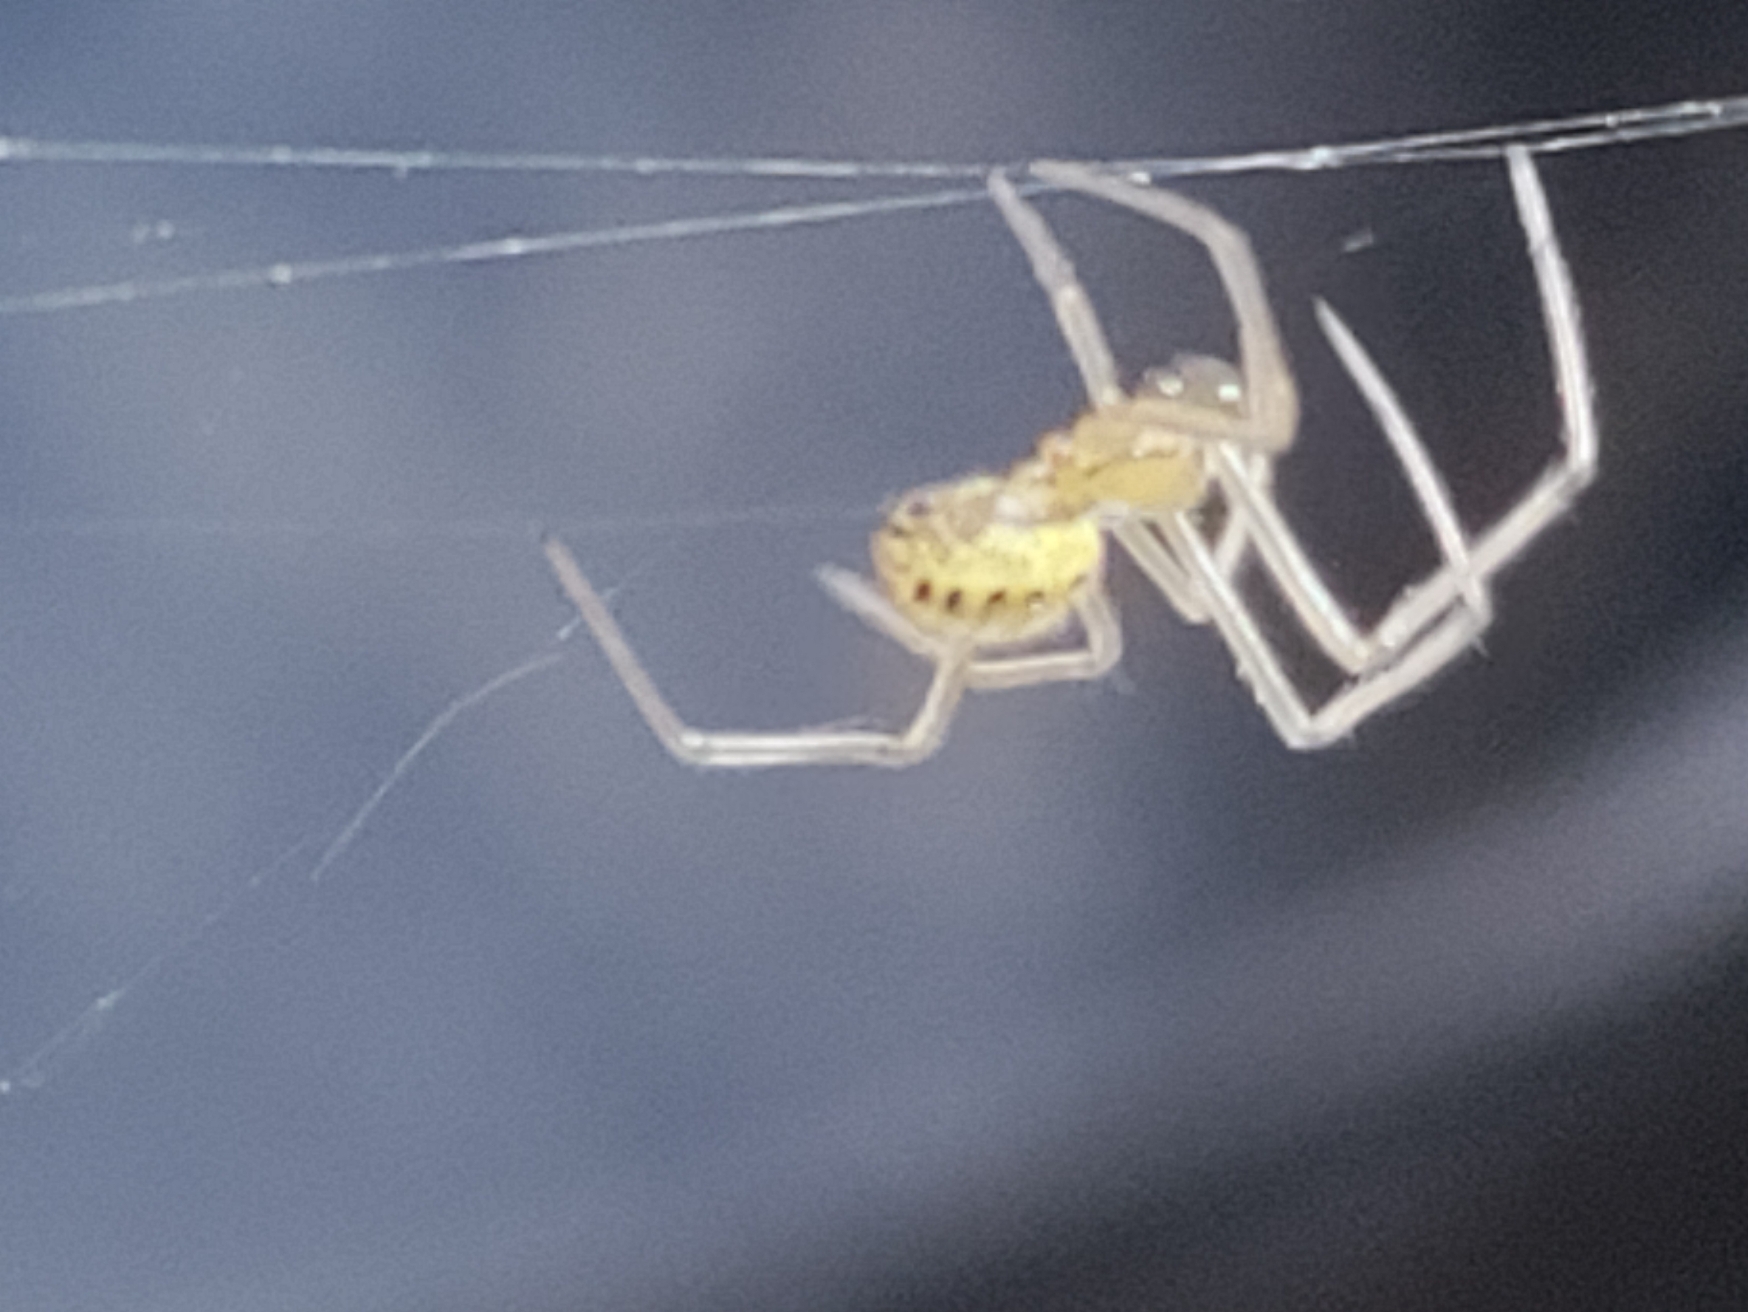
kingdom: Animalia
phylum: Arthropoda
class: Arachnida
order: Araneae
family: Theridiidae
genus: Enoplognatha
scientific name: Enoplognatha
